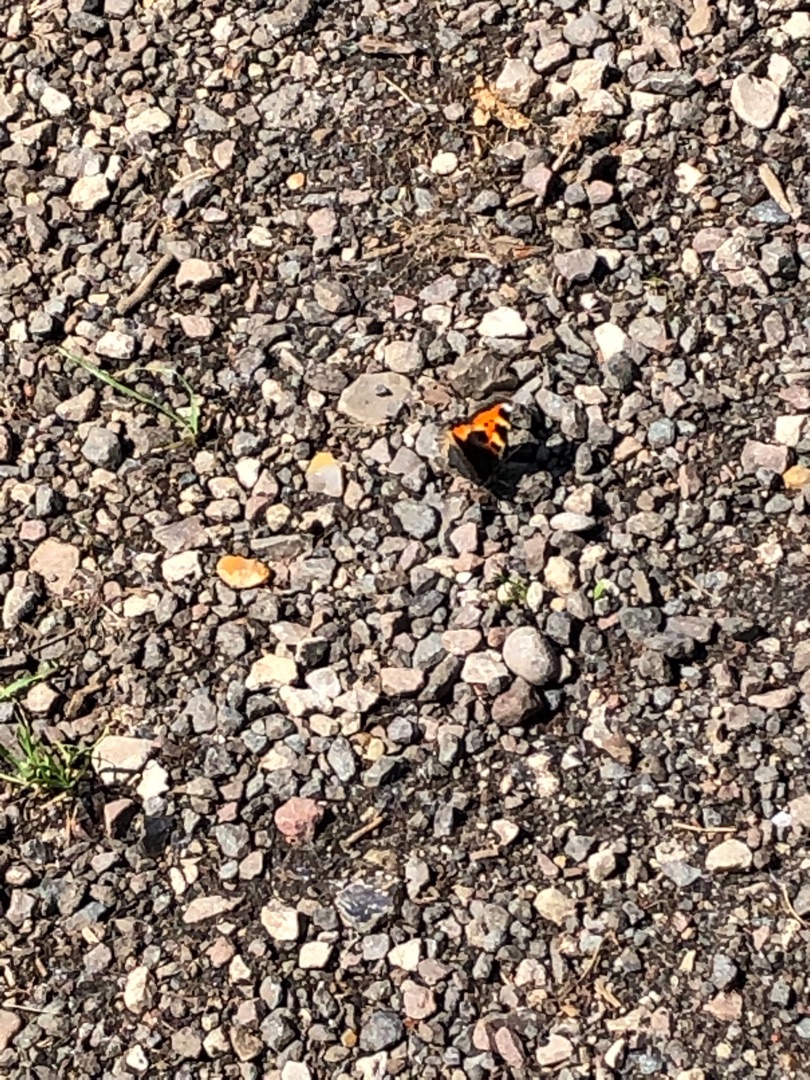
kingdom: Animalia
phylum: Arthropoda
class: Insecta
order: Lepidoptera
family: Nymphalidae
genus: Aglais
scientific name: Aglais urticae
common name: Nældens takvinge
